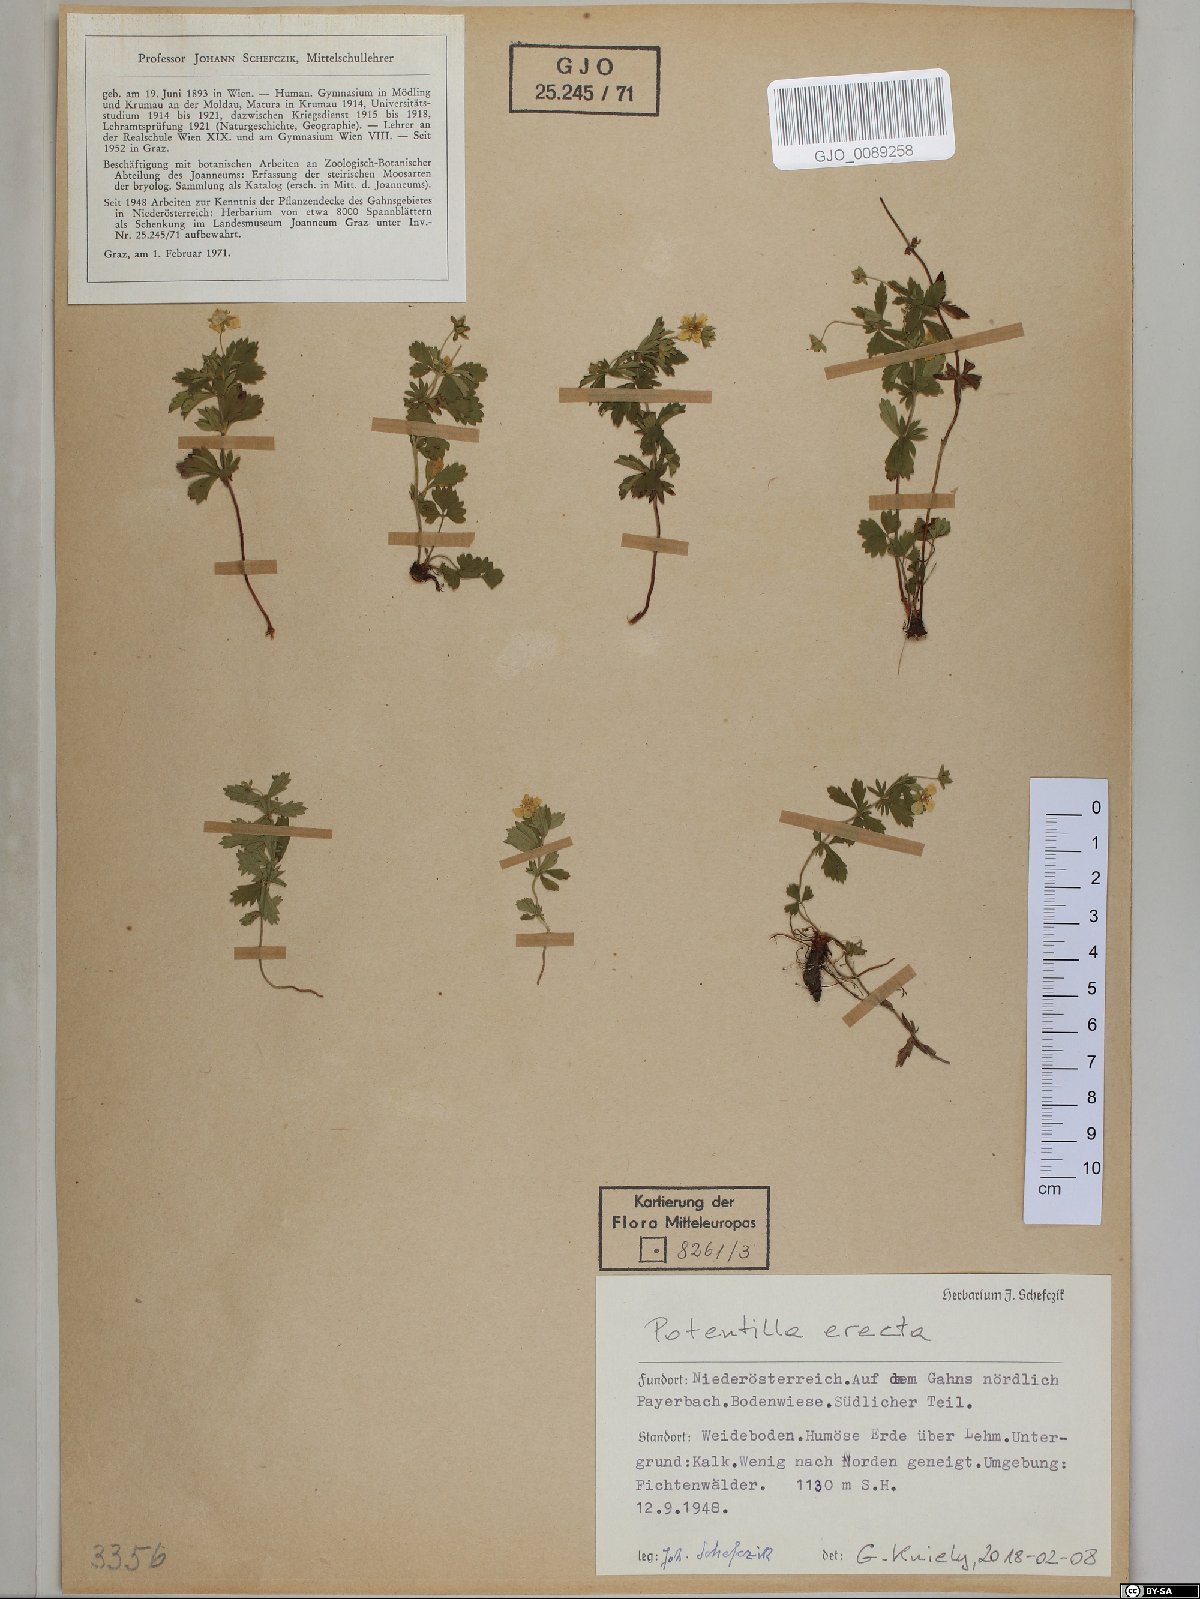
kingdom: Plantae
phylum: Tracheophyta
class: Magnoliopsida
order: Rosales
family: Rosaceae
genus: Potentilla
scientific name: Potentilla erecta
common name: Tormentil
